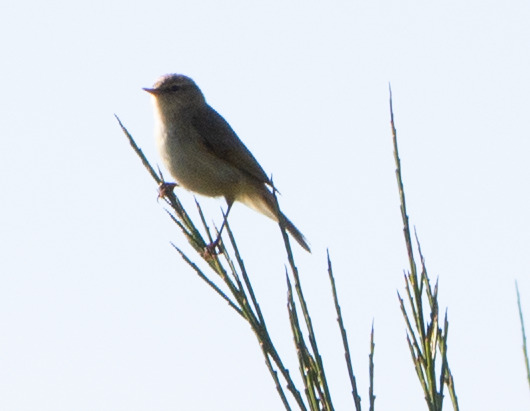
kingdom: Animalia
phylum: Chordata
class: Aves
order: Passeriformes
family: Phylloscopidae
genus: Phylloscopus
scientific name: Phylloscopus collybita
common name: Gransanger
